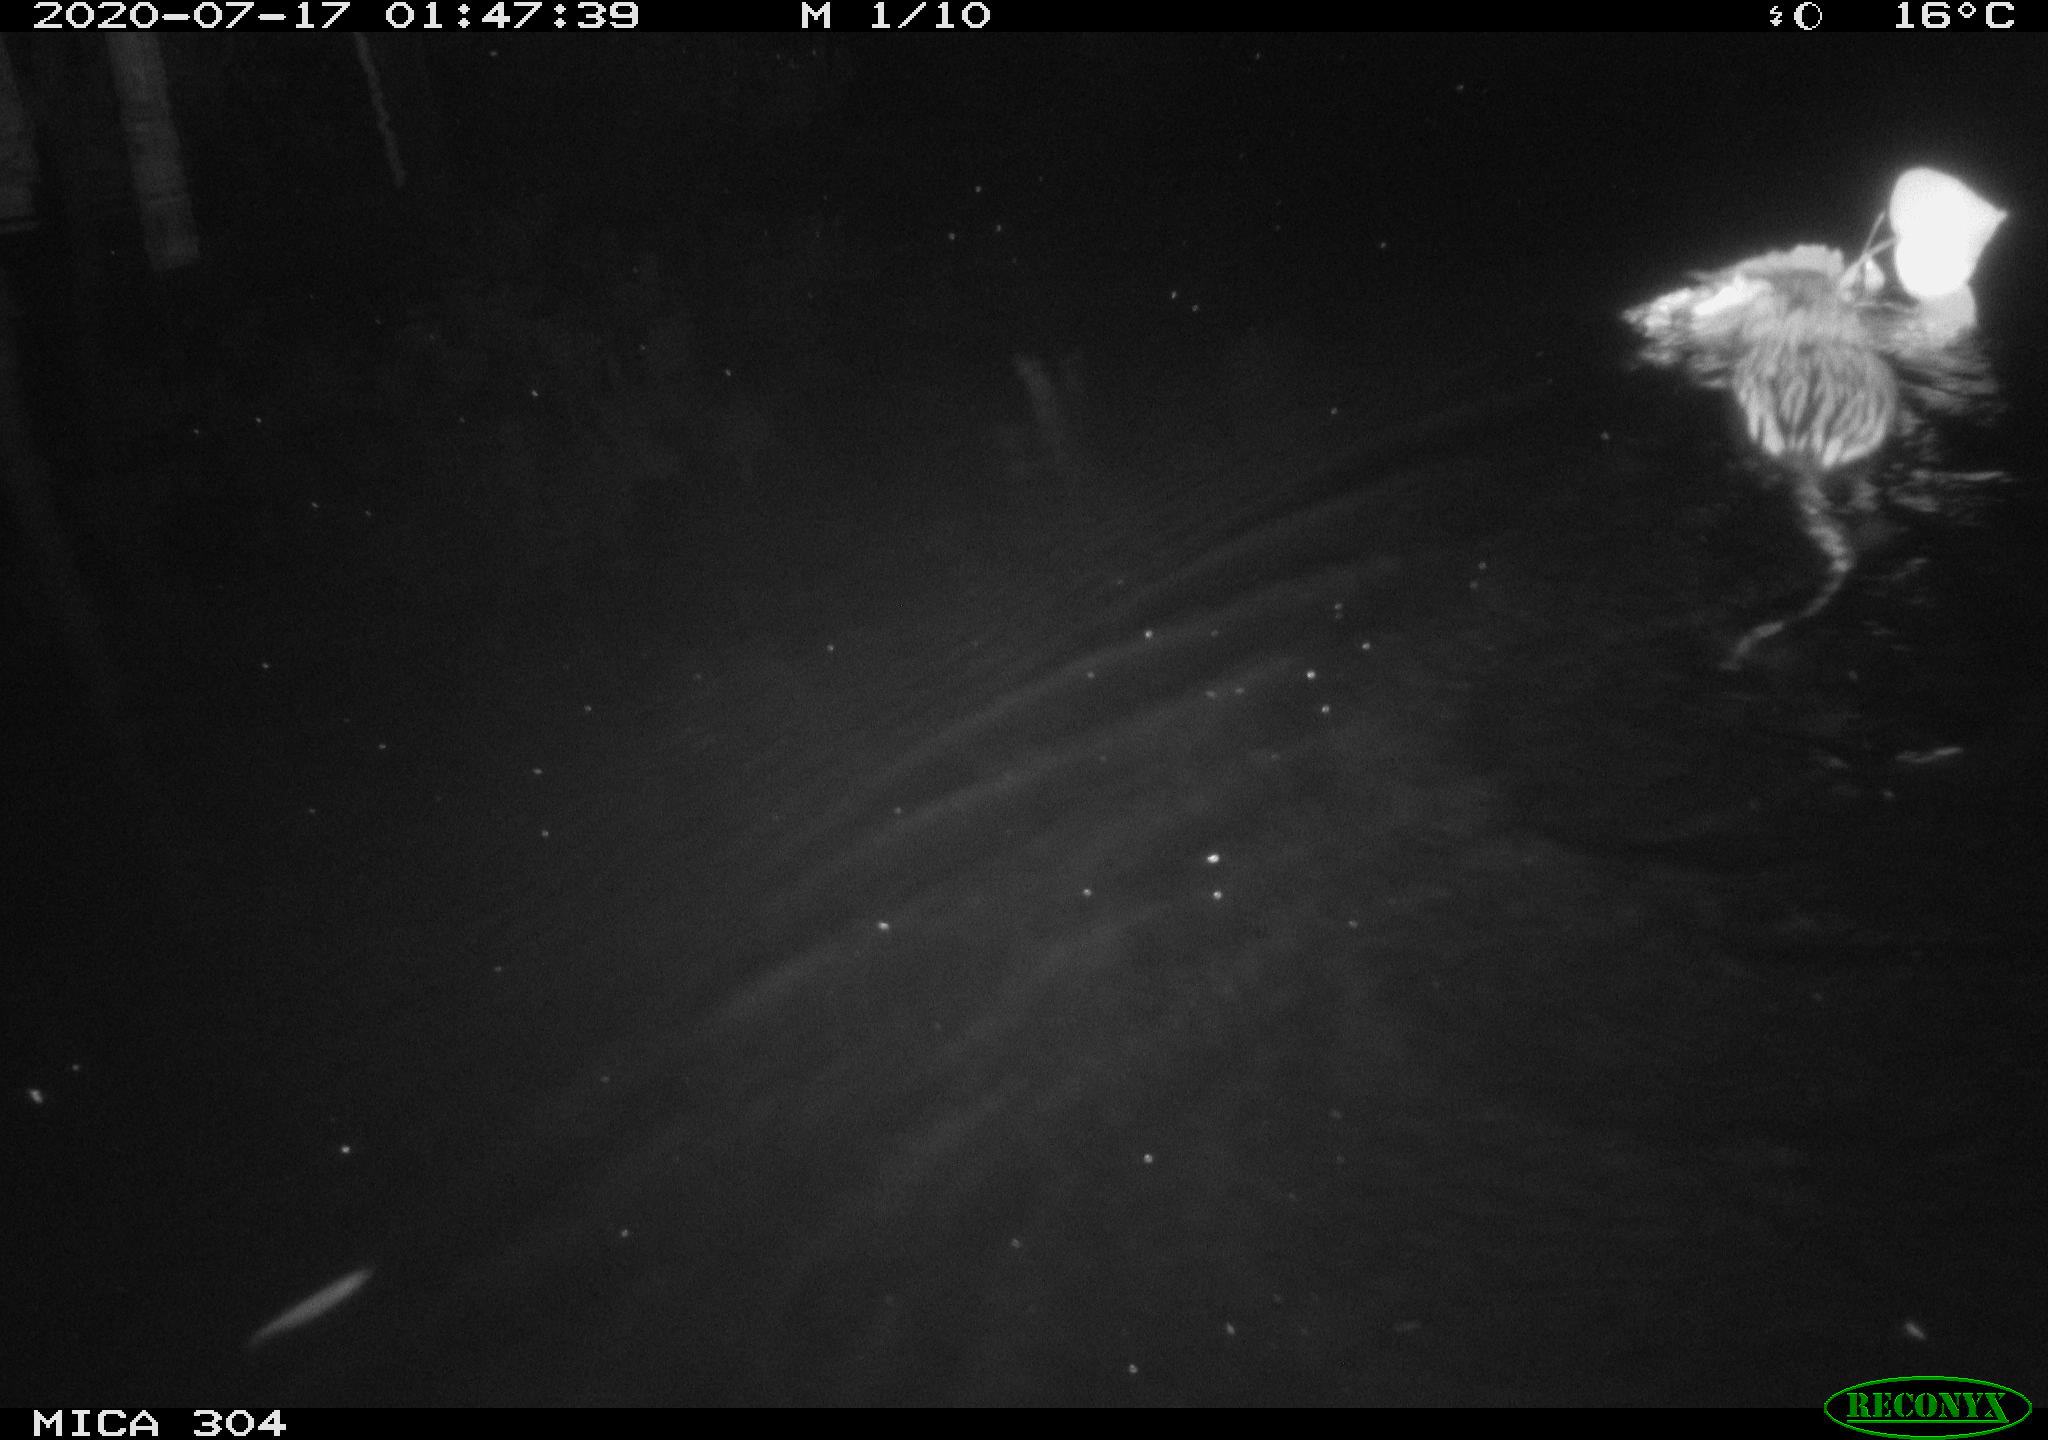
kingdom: Animalia
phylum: Chordata
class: Mammalia
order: Rodentia
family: Cricetidae
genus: Ondatra
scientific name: Ondatra zibethicus
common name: Muskrat
